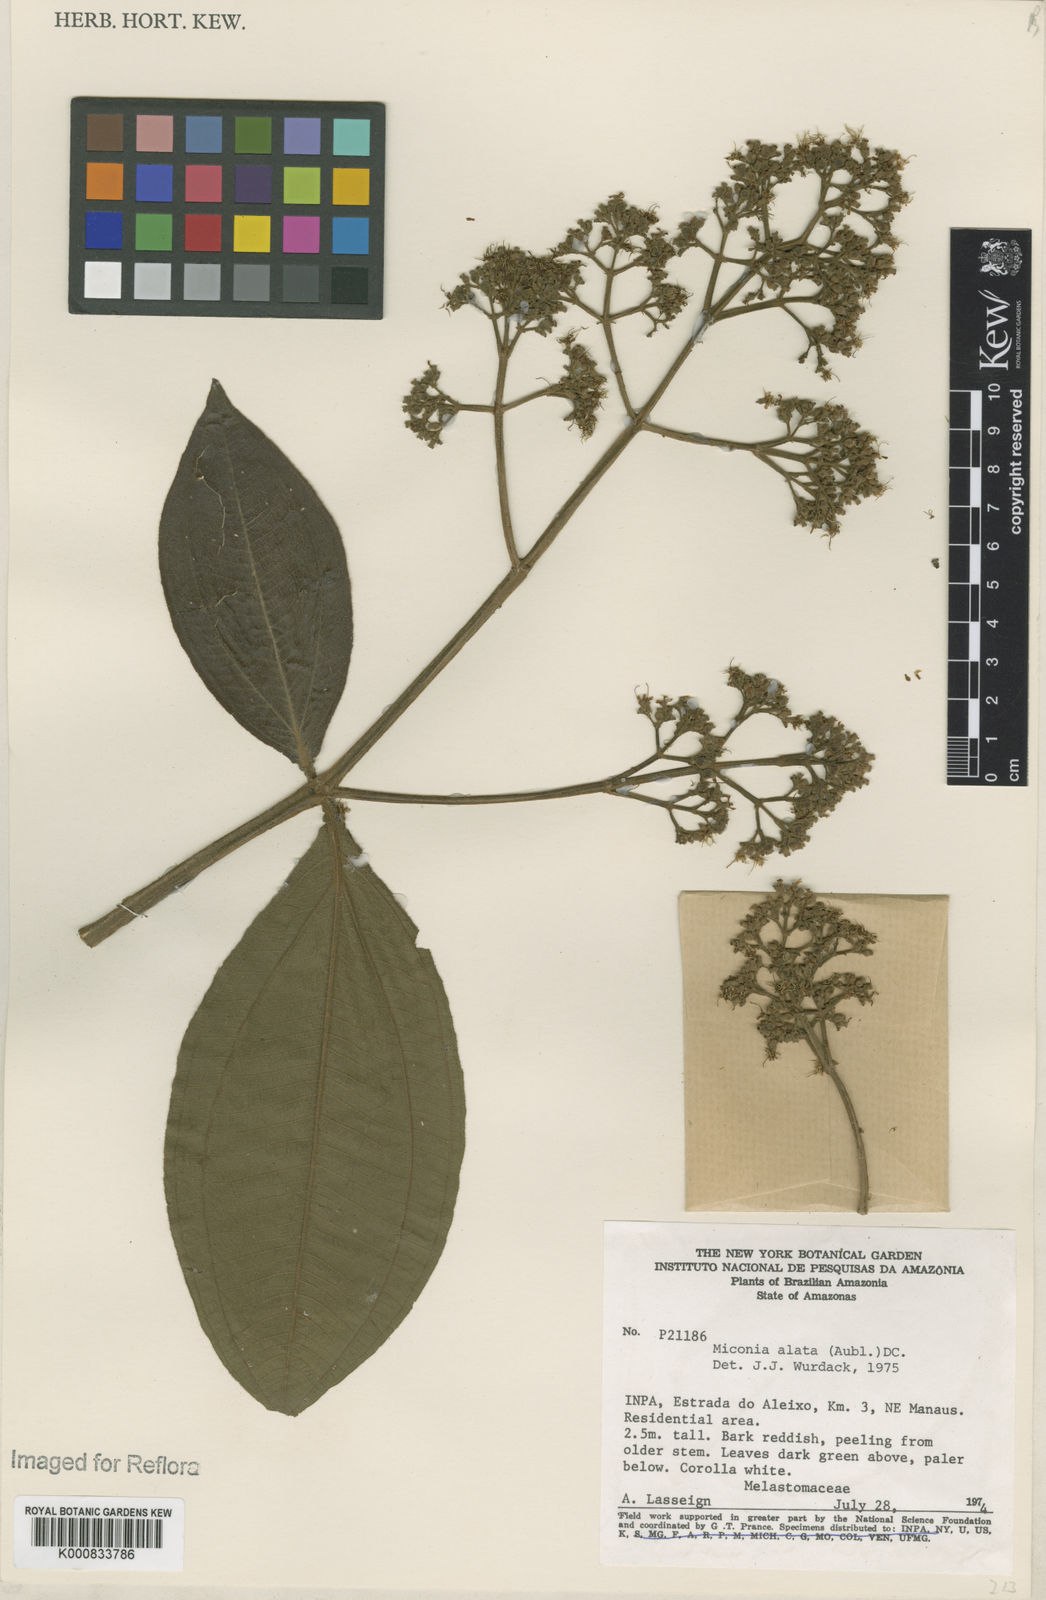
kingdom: Plantae
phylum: Tracheophyta
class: Magnoliopsida
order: Myrtales
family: Melastomataceae
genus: Miconia
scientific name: Miconia alata
